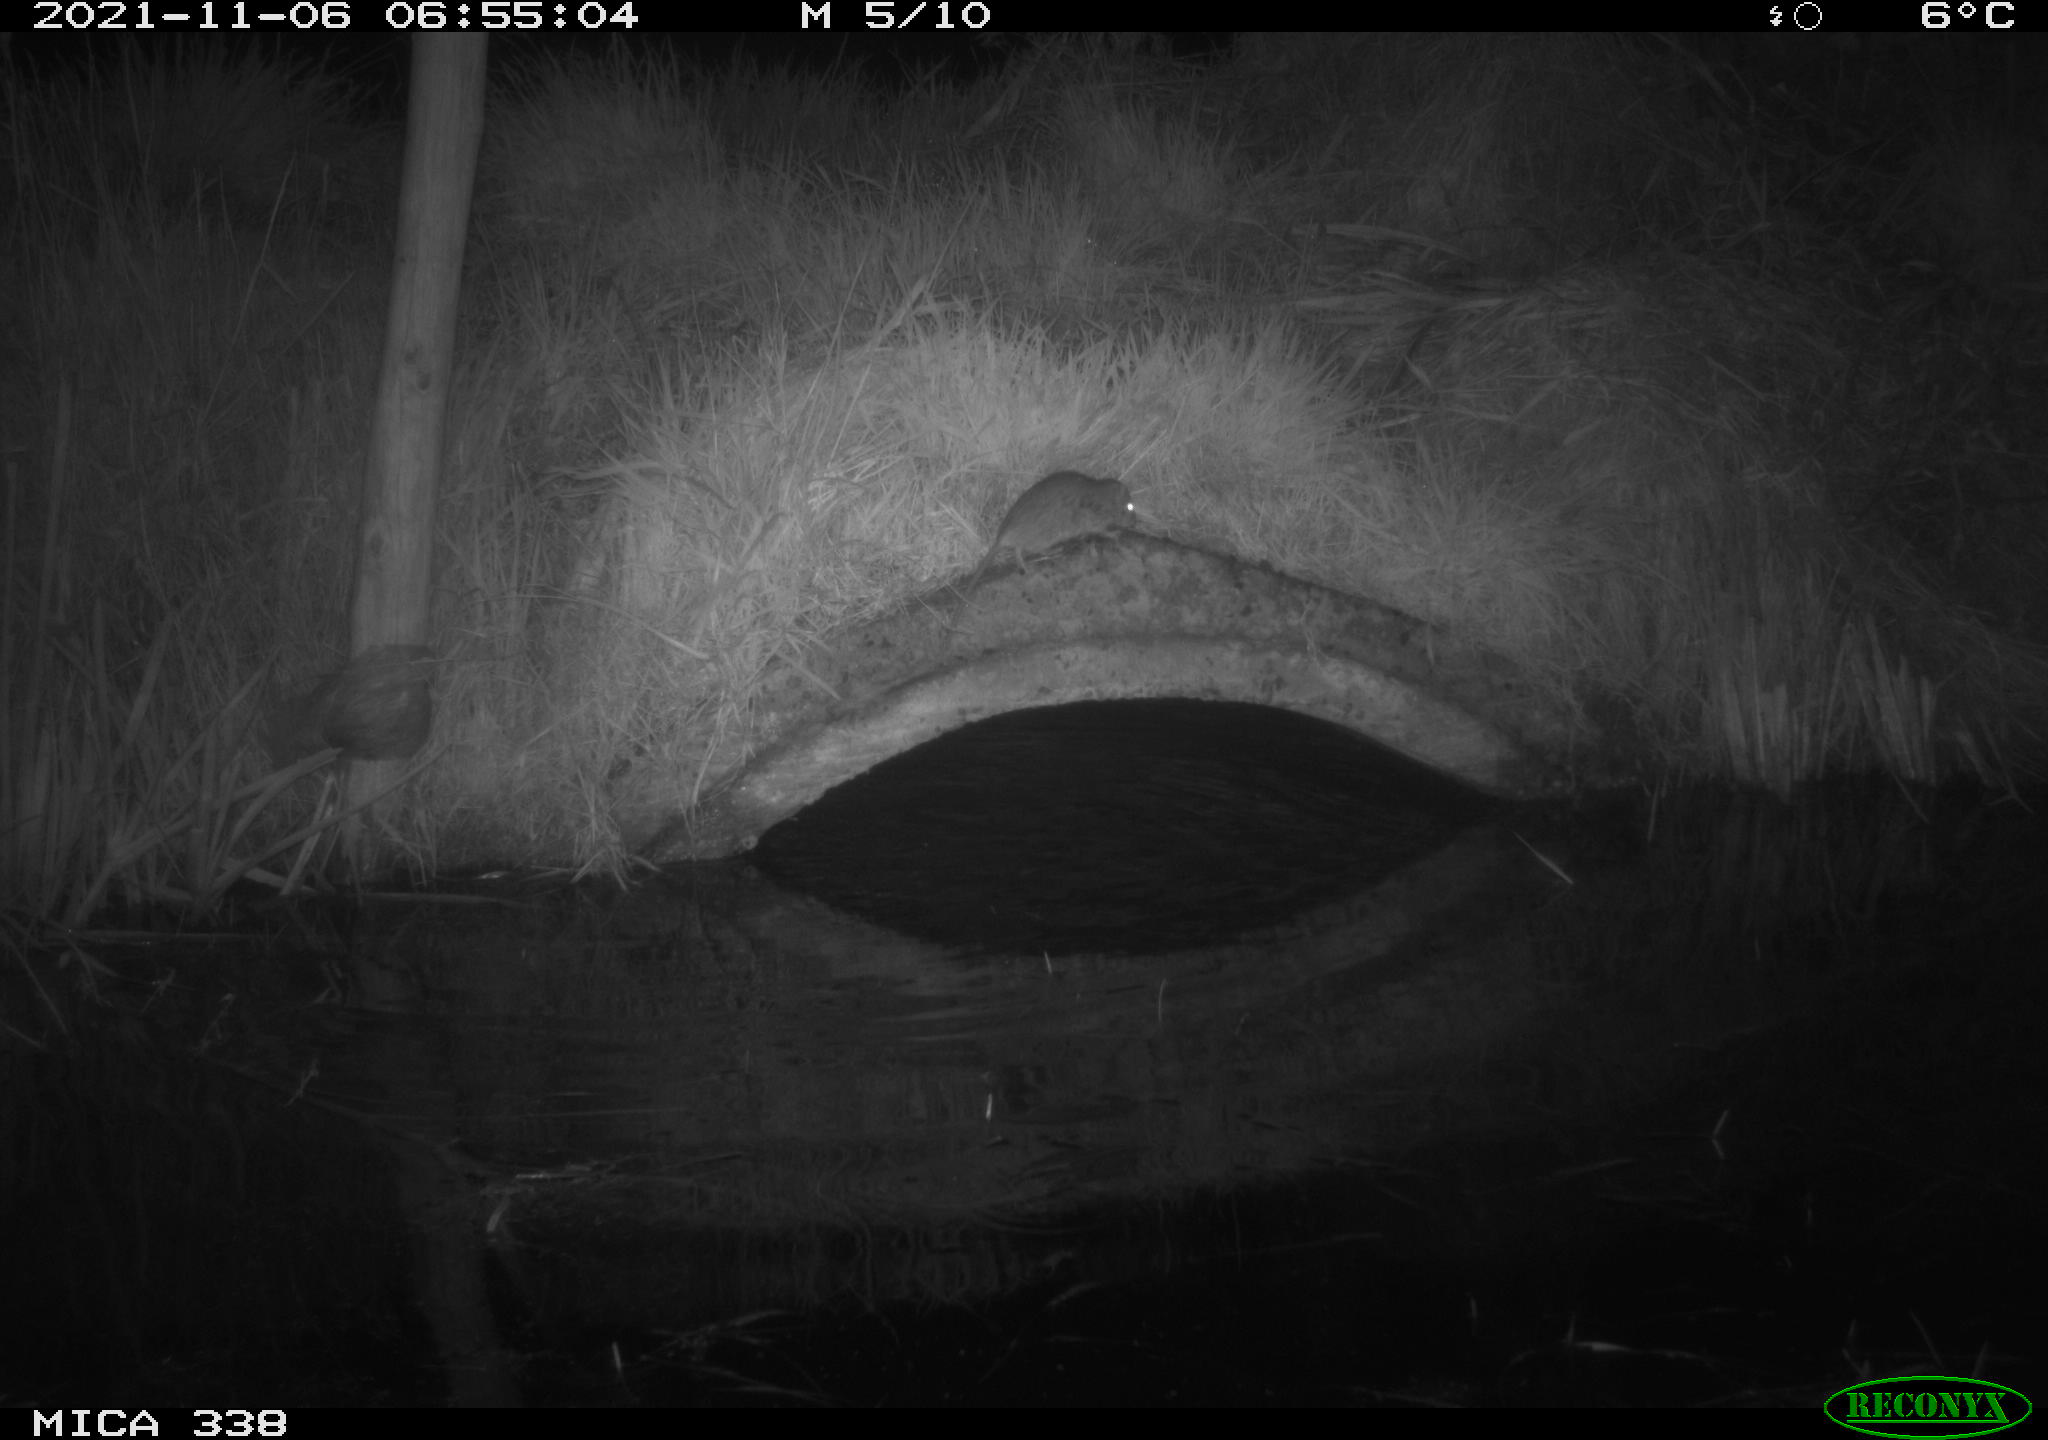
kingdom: Animalia
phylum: Chordata
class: Mammalia
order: Rodentia
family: Muridae
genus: Rattus
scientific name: Rattus norvegicus
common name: Brown rat
